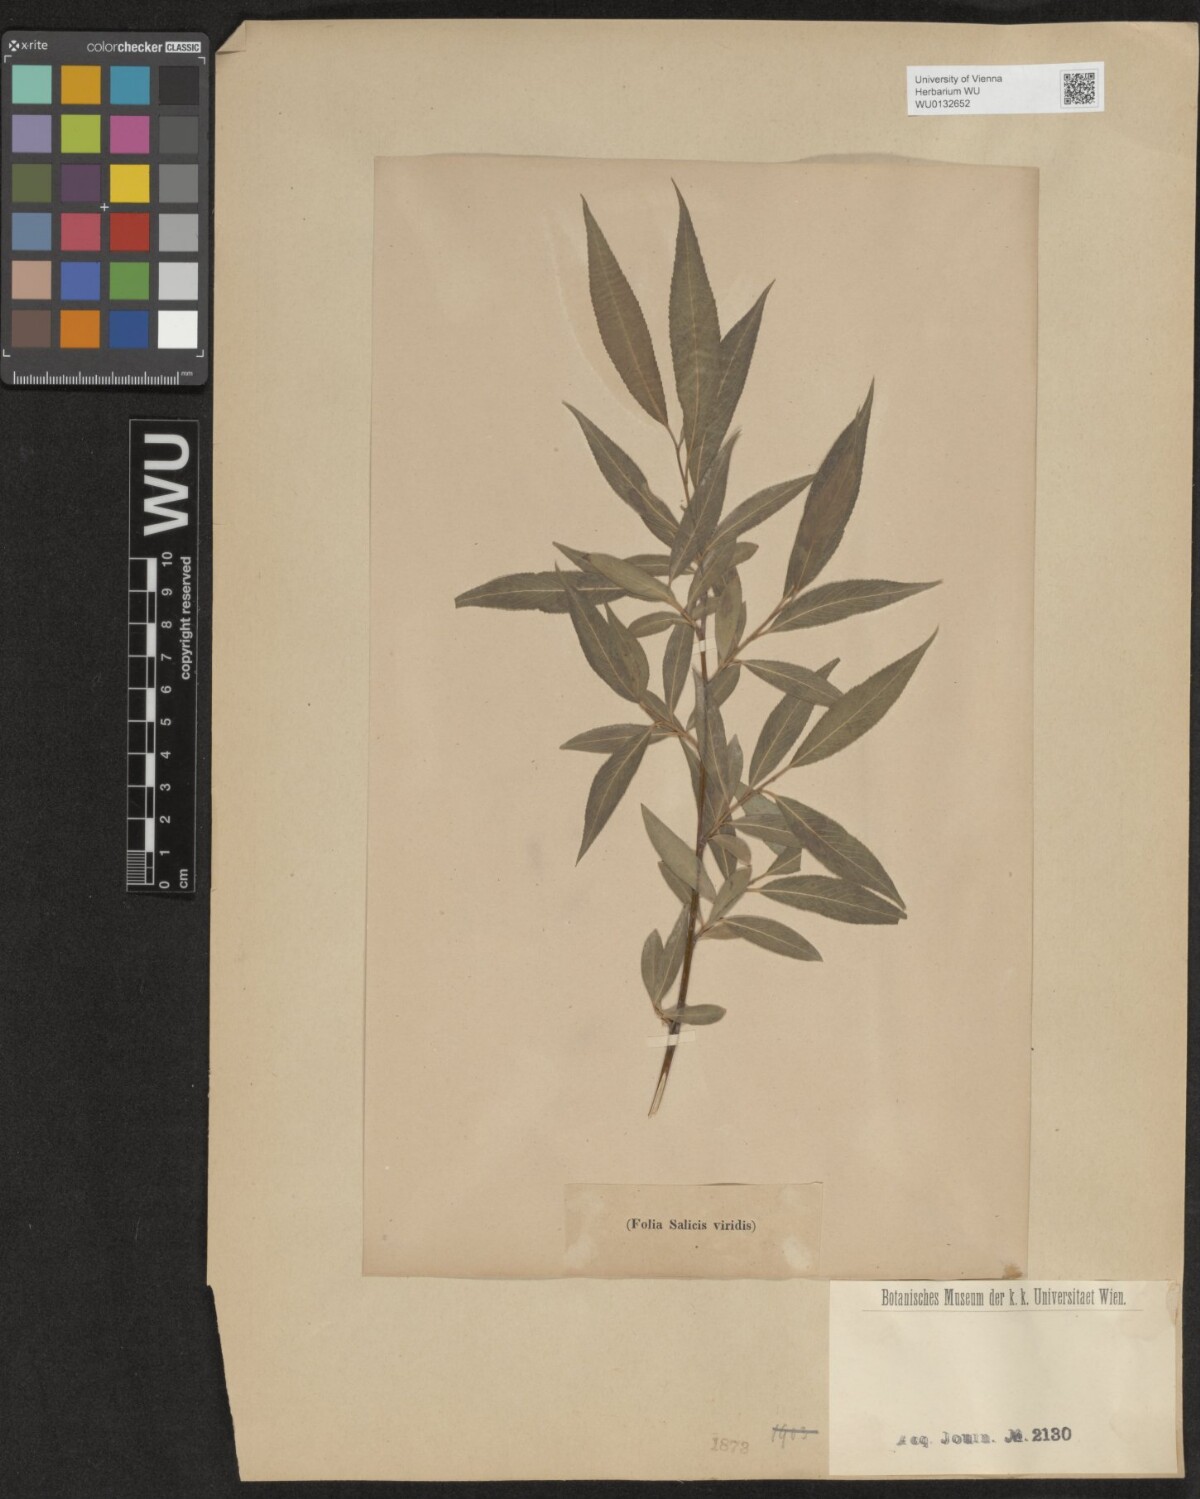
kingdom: Plantae
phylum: Tracheophyta
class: Magnoliopsida
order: Malpighiales
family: Salicaceae
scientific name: Salicaceae
